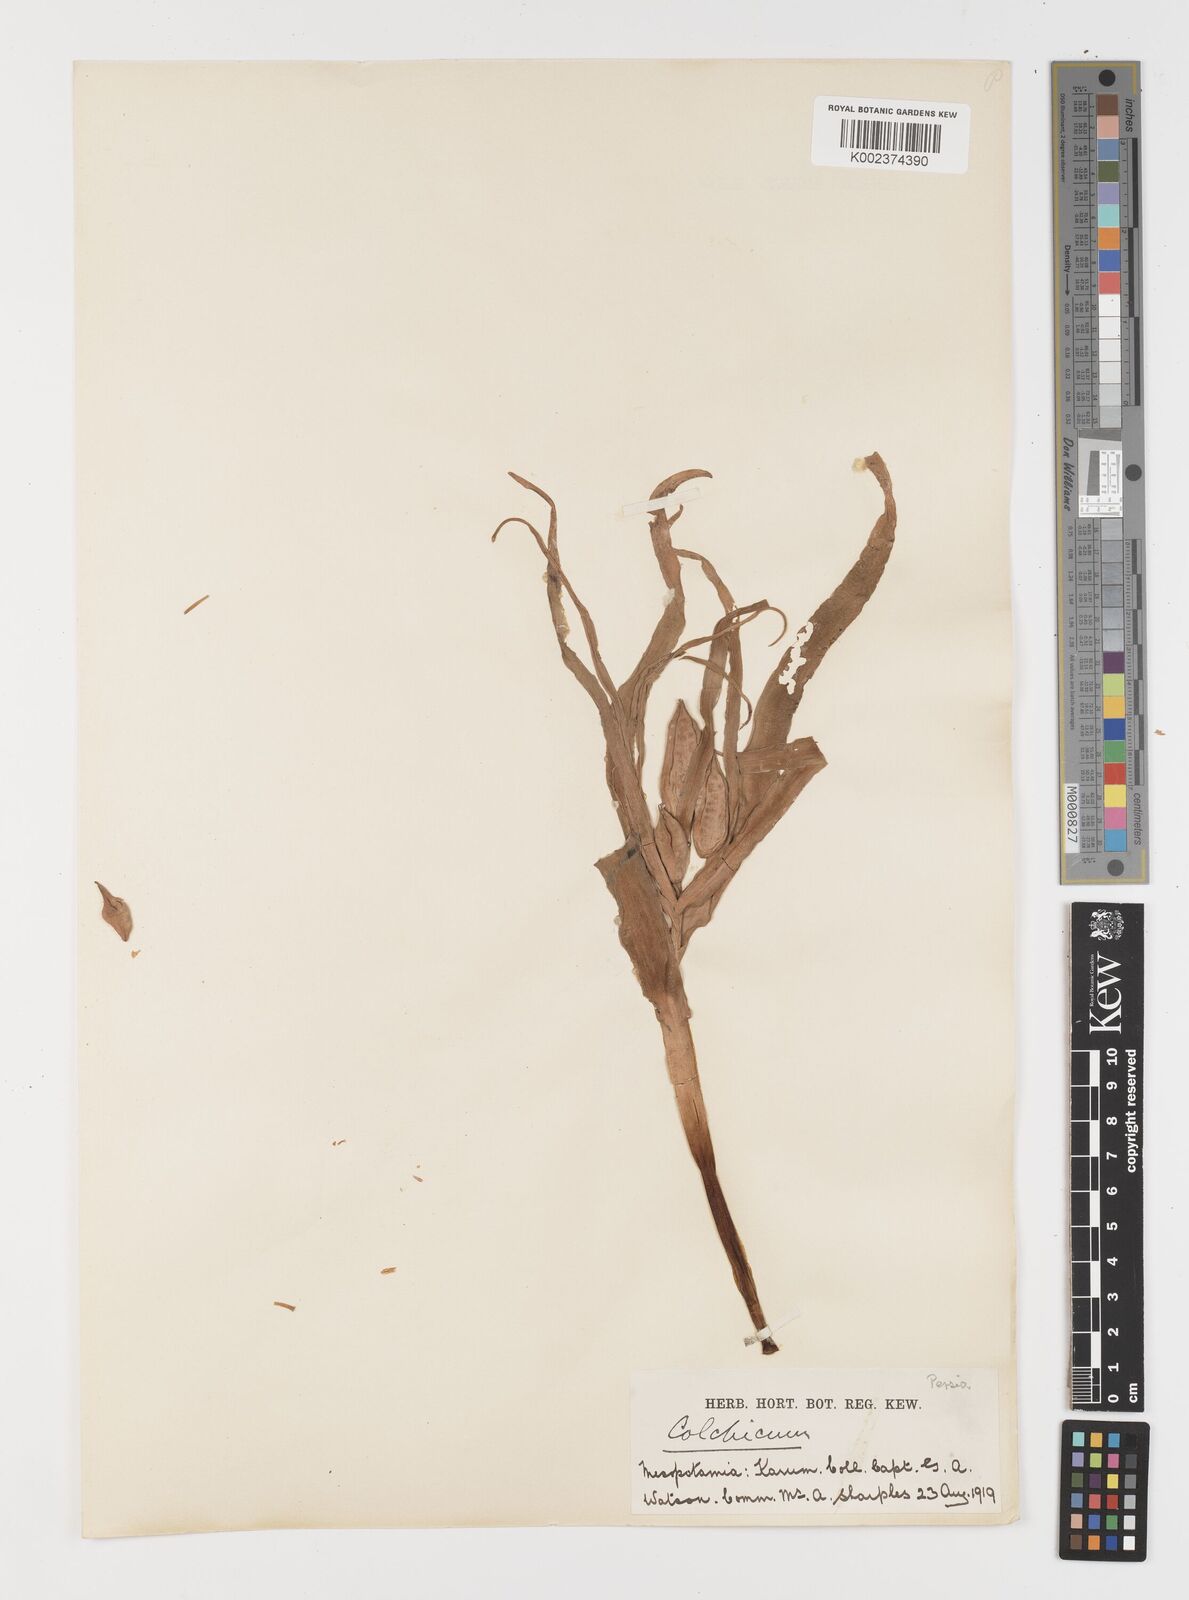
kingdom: Plantae
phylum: Tracheophyta
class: Liliopsida
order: Liliales
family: Colchicaceae
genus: Colchicum
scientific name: Colchicum
